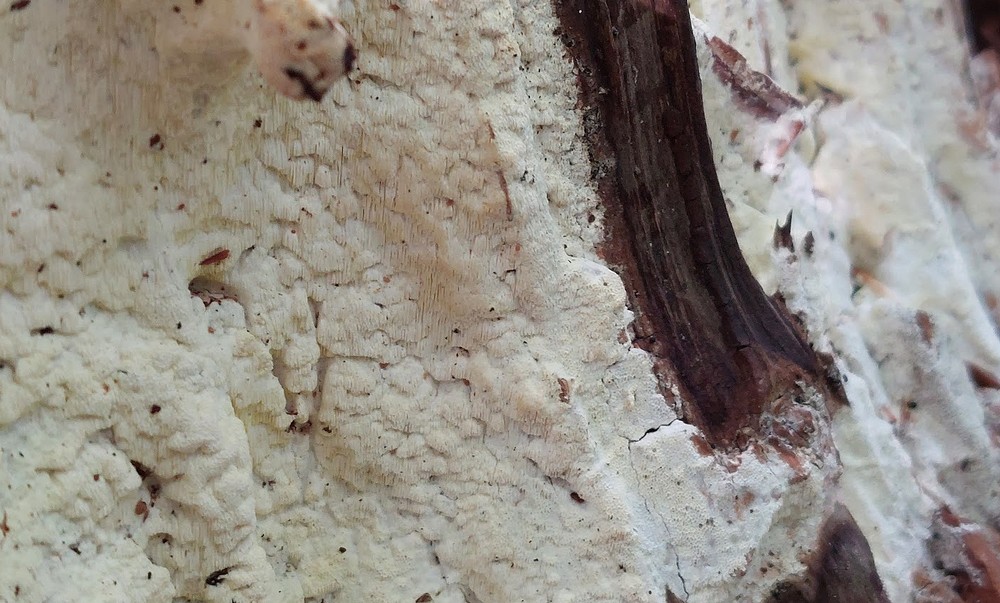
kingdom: Fungi
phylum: Basidiomycota
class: Agaricomycetes
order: Polyporales
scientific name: Polyporales
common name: poresvampordenen
